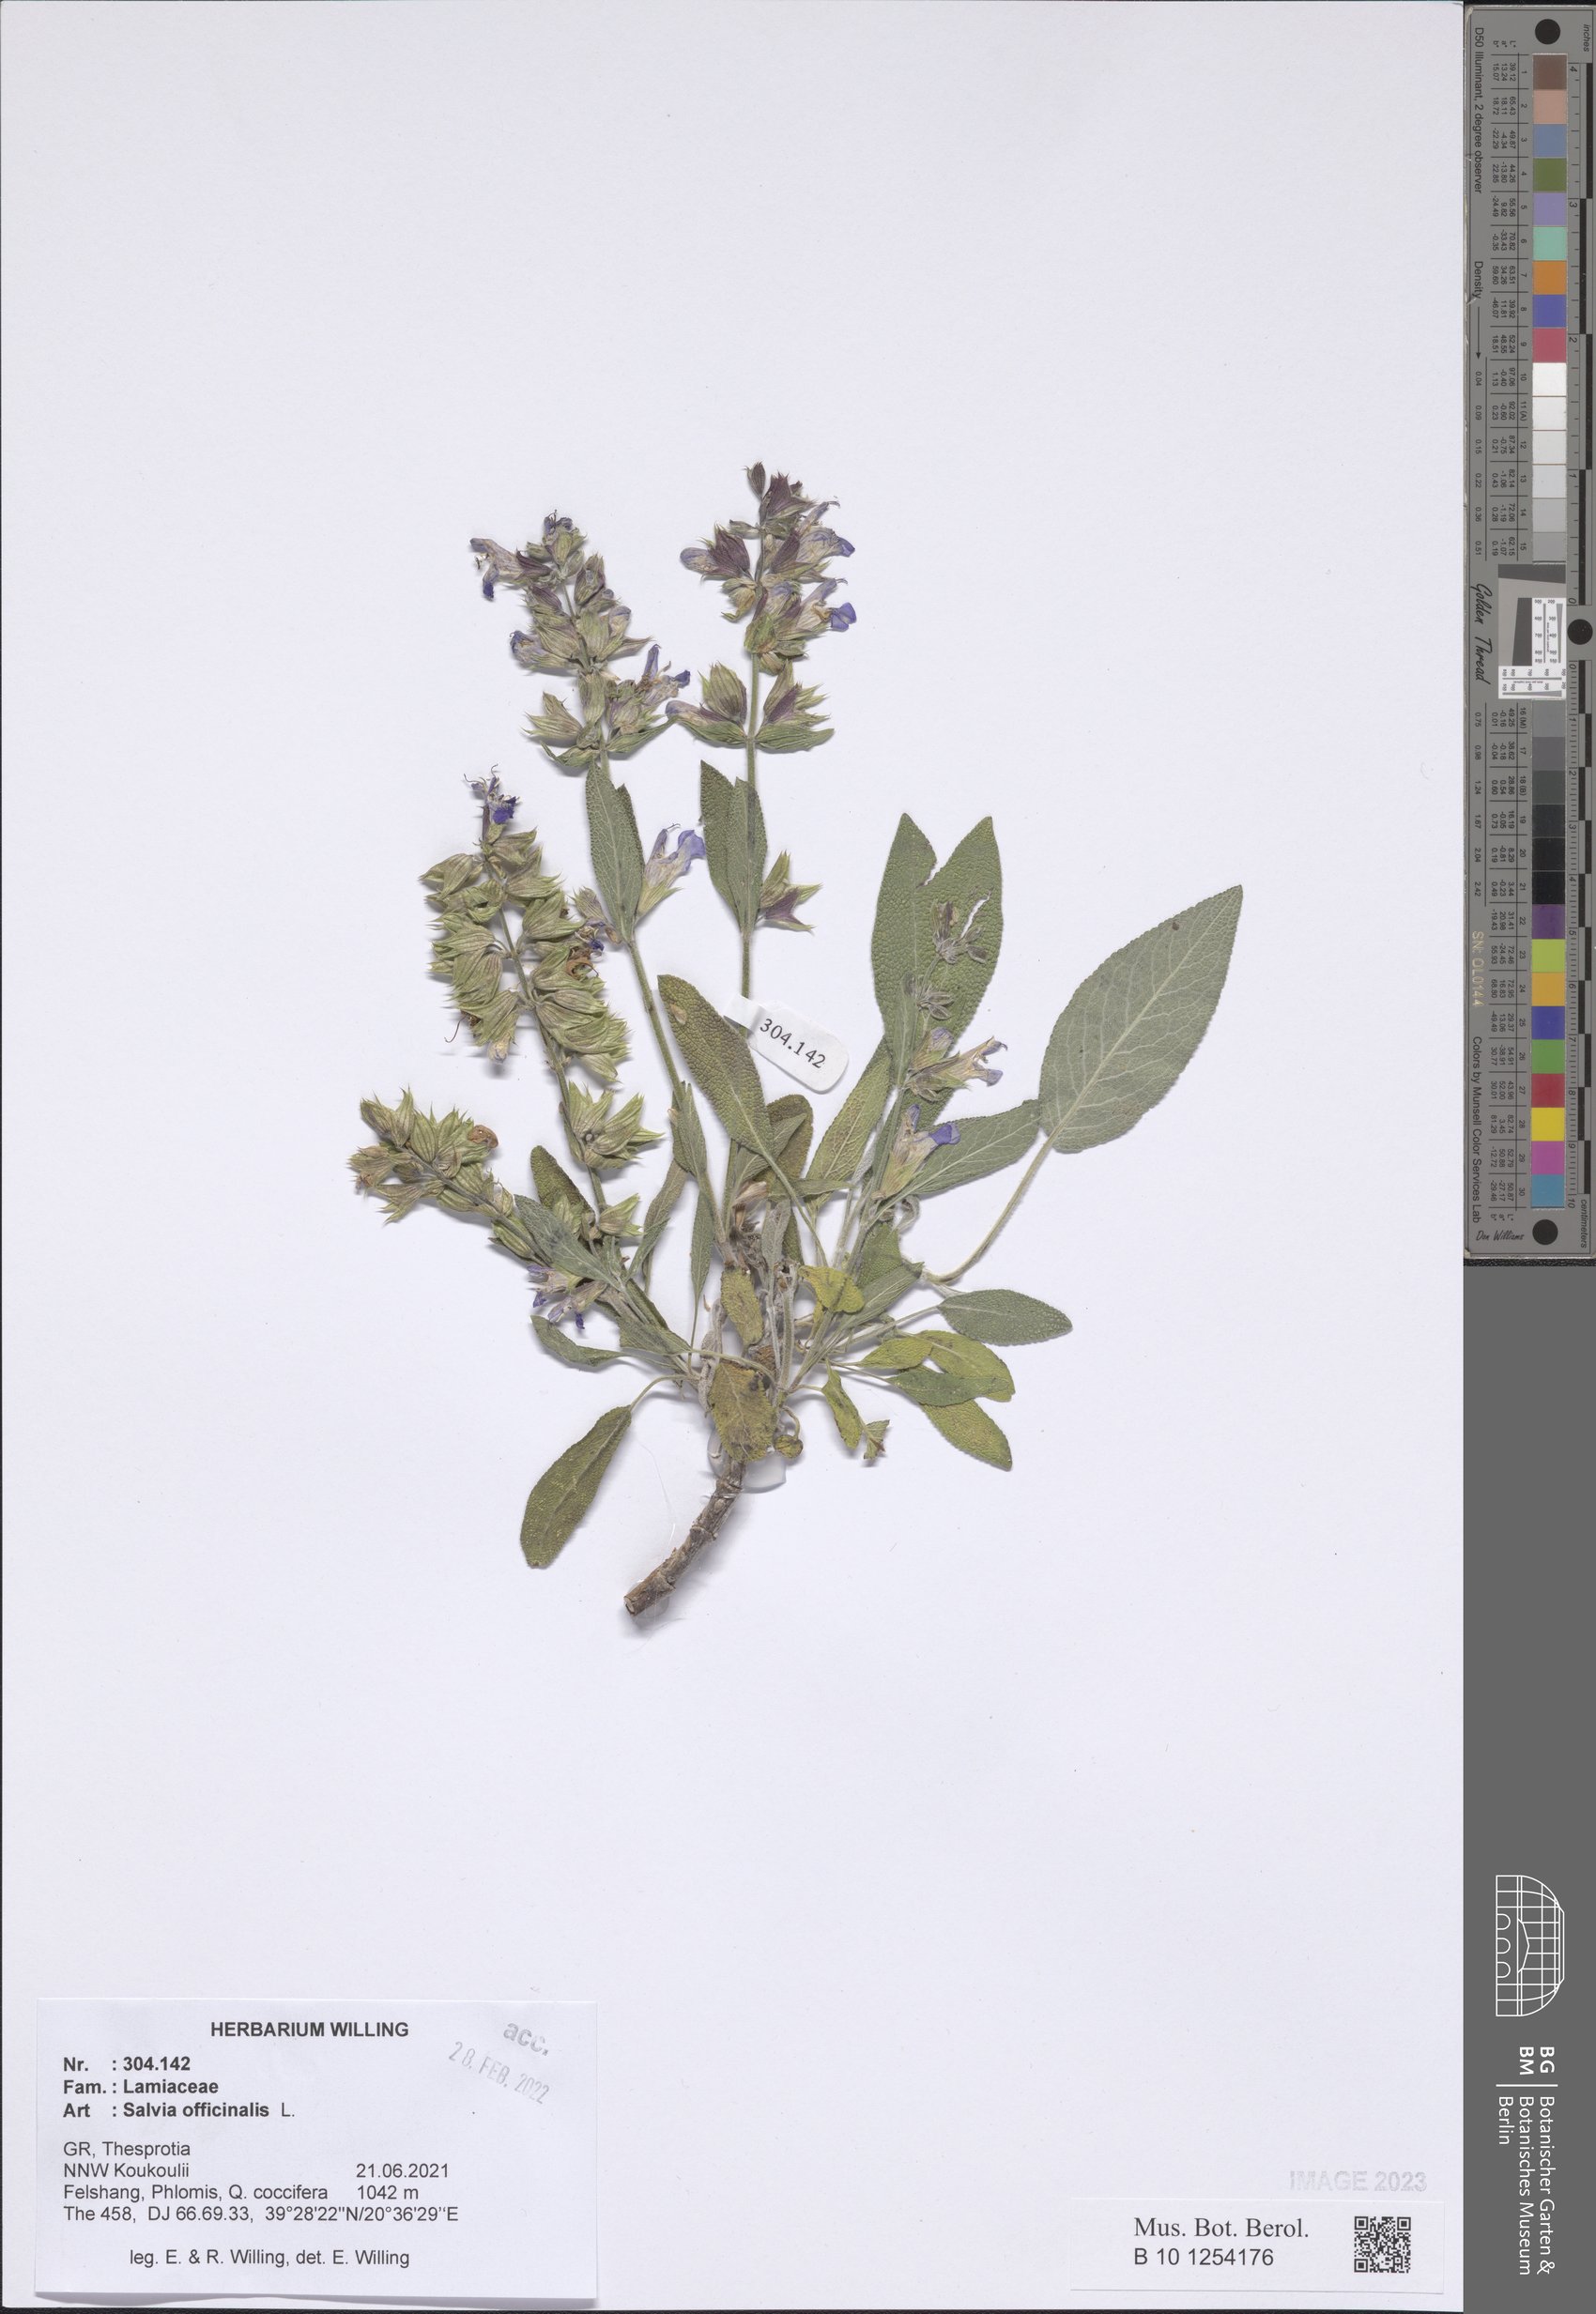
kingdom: Plantae
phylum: Tracheophyta
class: Magnoliopsida
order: Lamiales
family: Lamiaceae
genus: Salvia
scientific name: Salvia officinalis
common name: Sage
